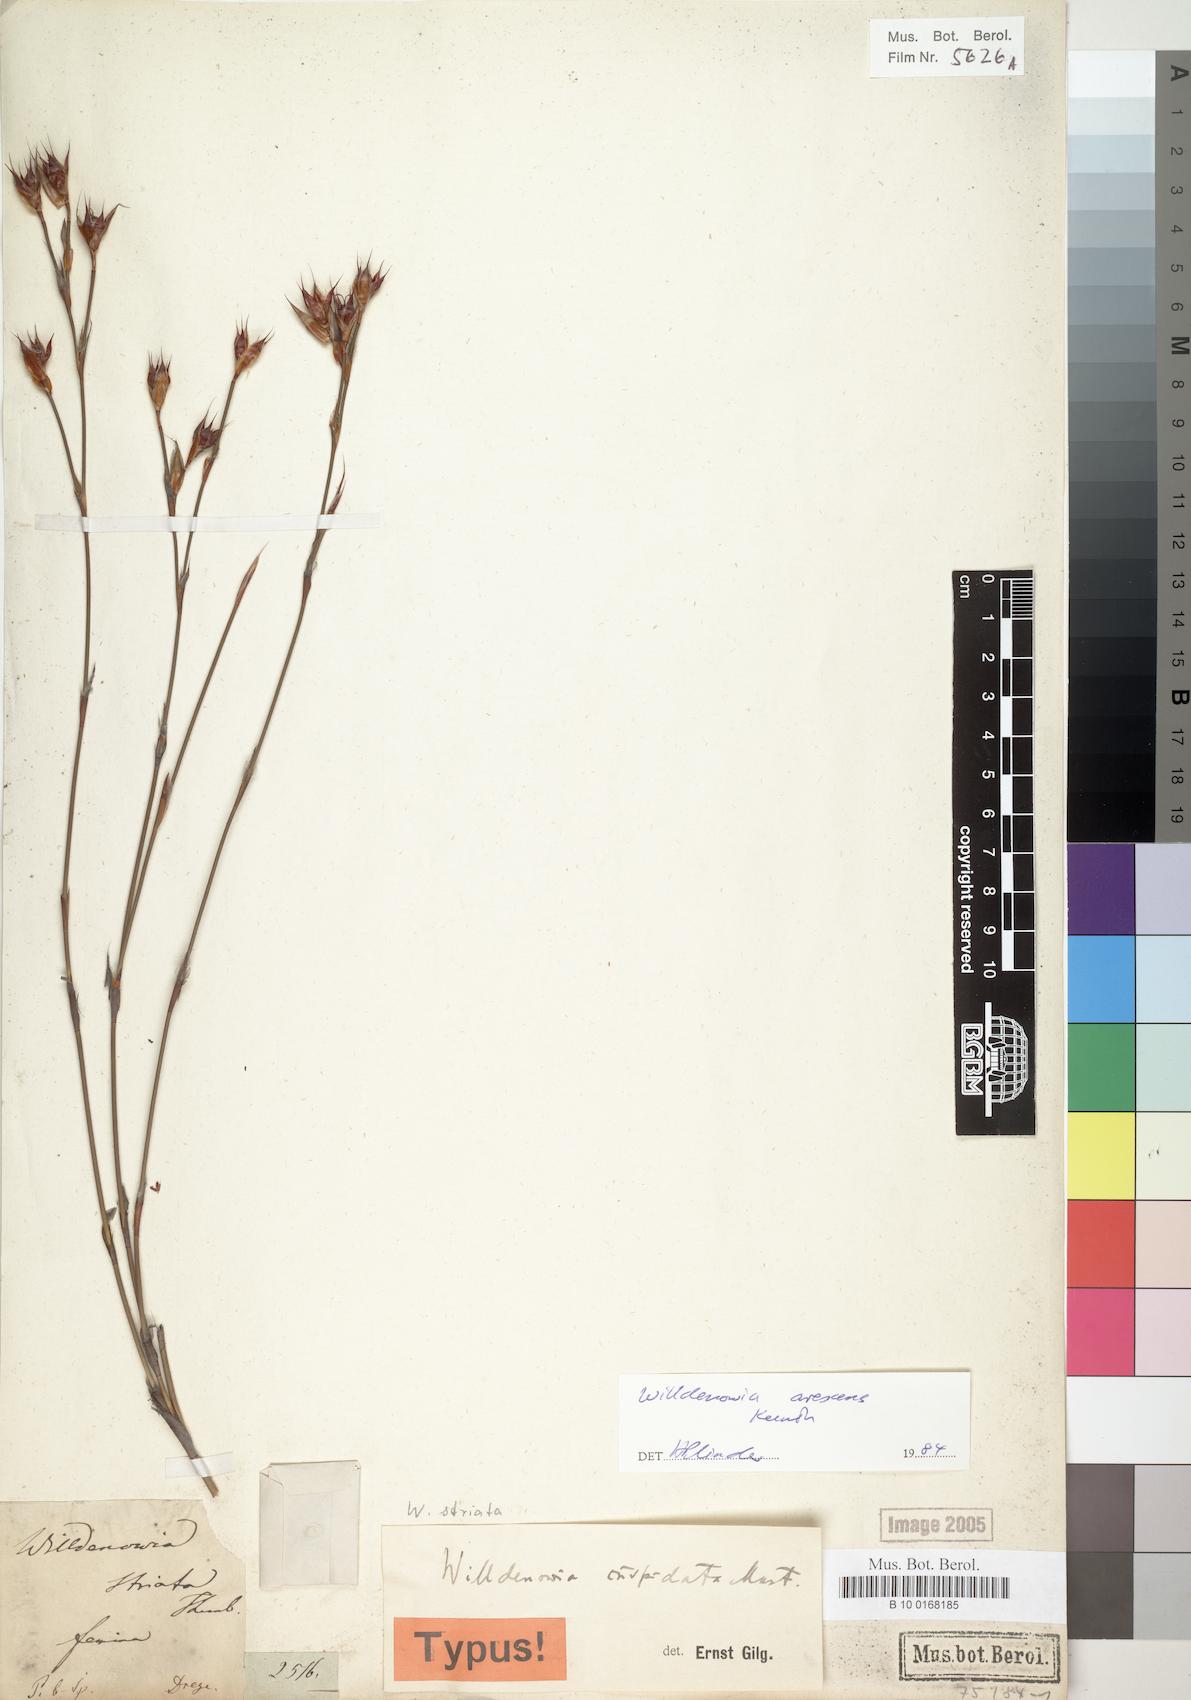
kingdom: Plantae
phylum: Tracheophyta
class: Liliopsida
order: Poales
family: Restionaceae
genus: Willdenowia
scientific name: Willdenowia arescens
